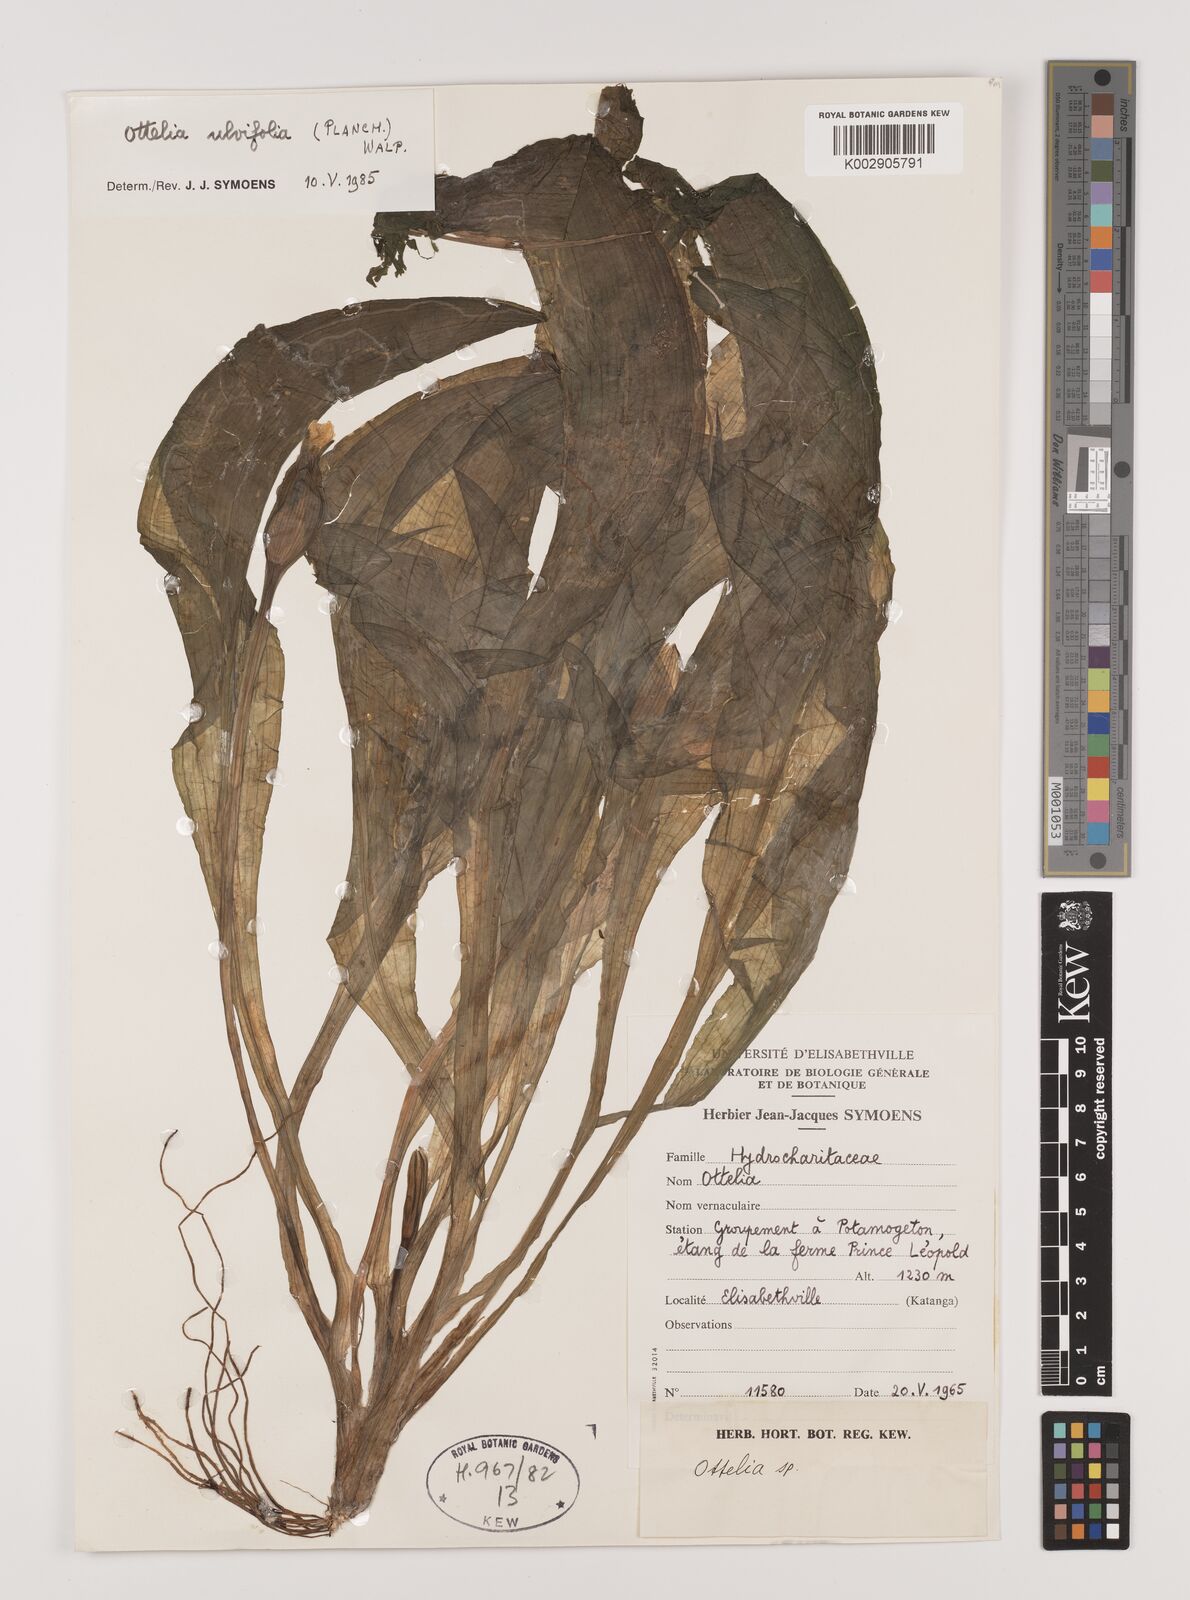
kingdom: Plantae
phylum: Tracheophyta
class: Liliopsida
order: Alismatales
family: Hydrocharitaceae
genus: Ottelia
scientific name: Ottelia ulvifolia
